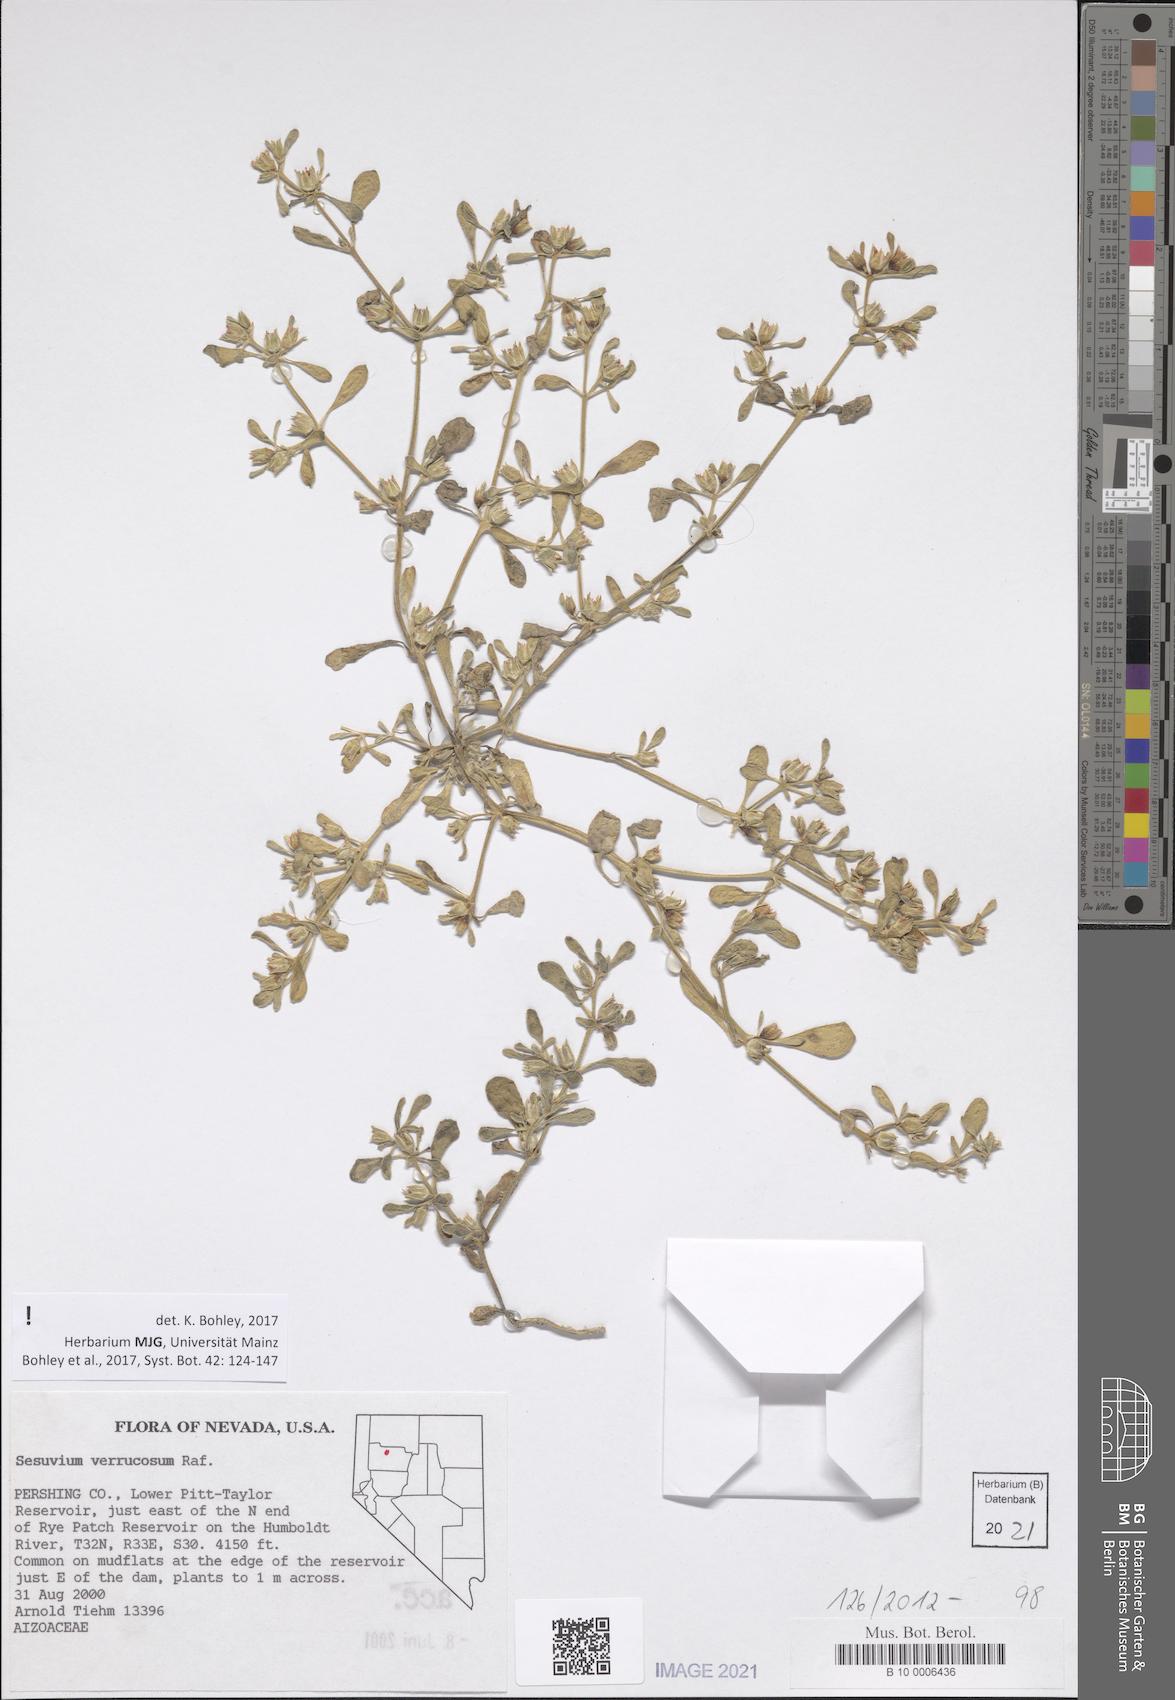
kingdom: Plantae
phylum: Tracheophyta
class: Magnoliopsida
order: Caryophyllales
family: Aizoaceae
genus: Sesuvium
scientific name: Sesuvium revolutifolium
